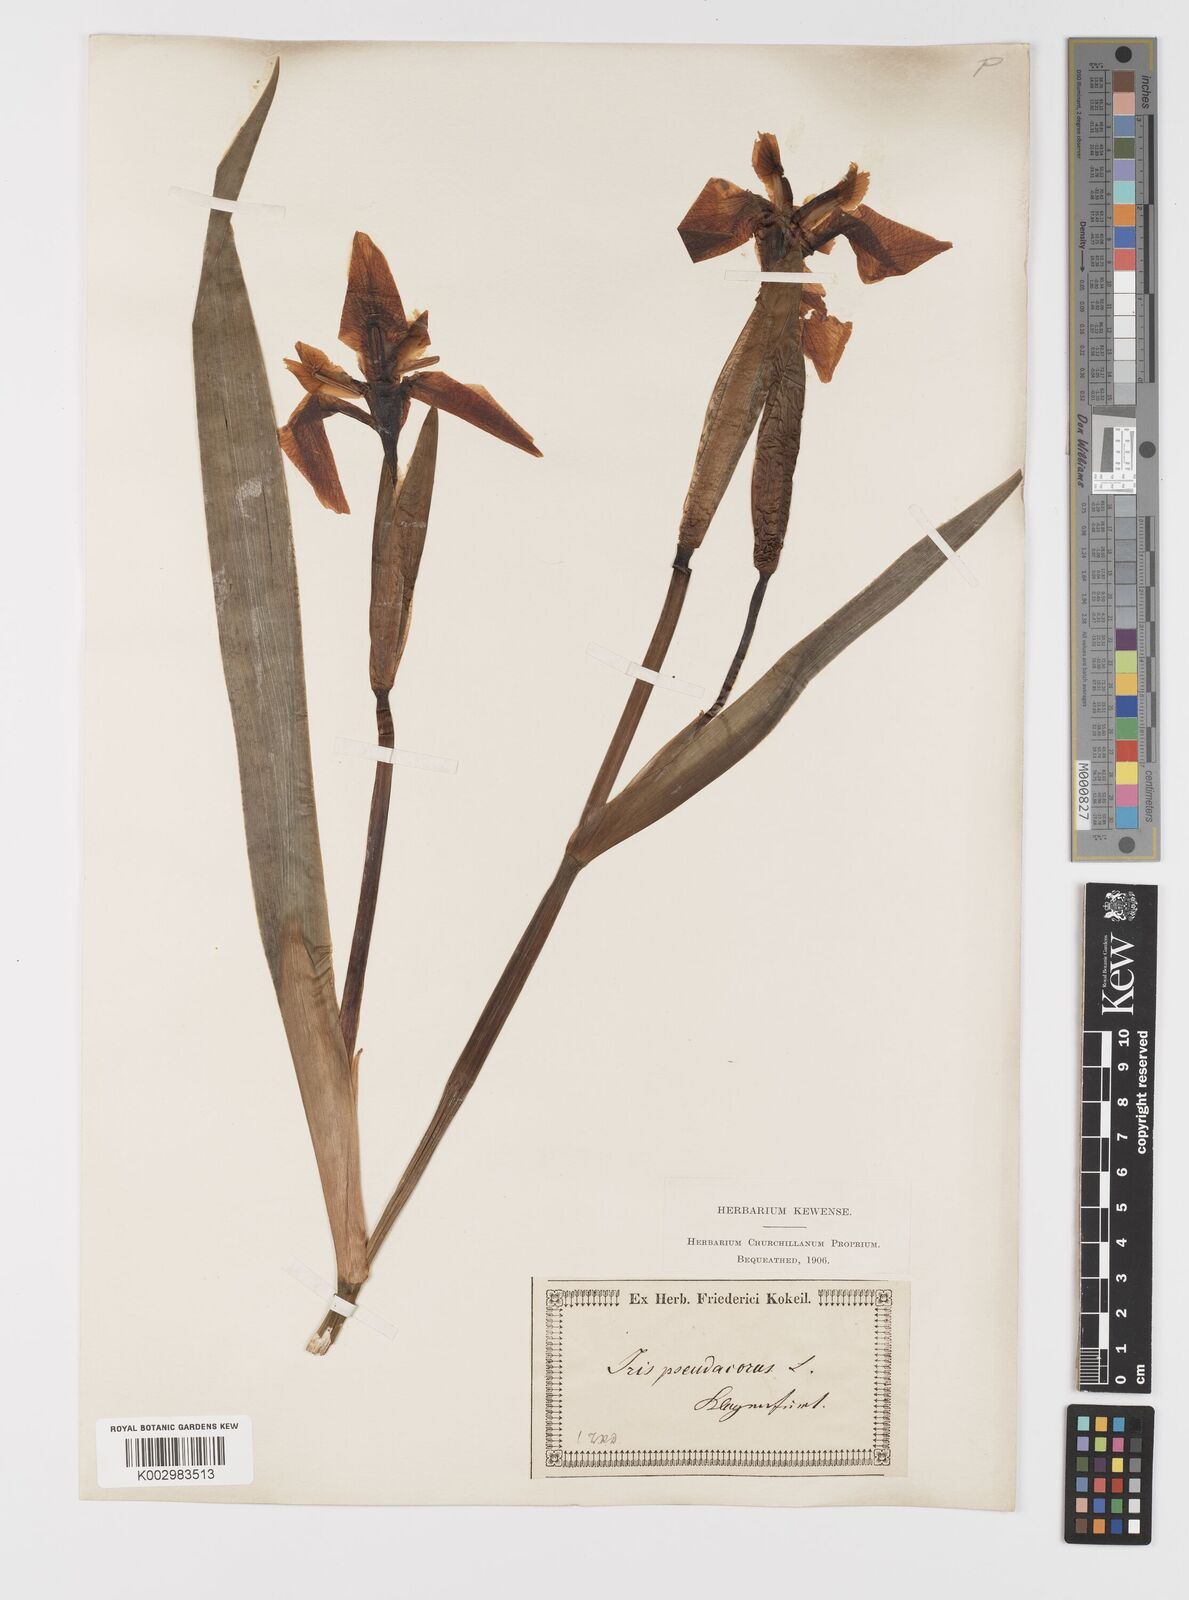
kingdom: Plantae
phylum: Tracheophyta
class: Liliopsida
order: Asparagales
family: Iridaceae
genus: Iris
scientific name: Iris pseudacorus
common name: Yellow flag
